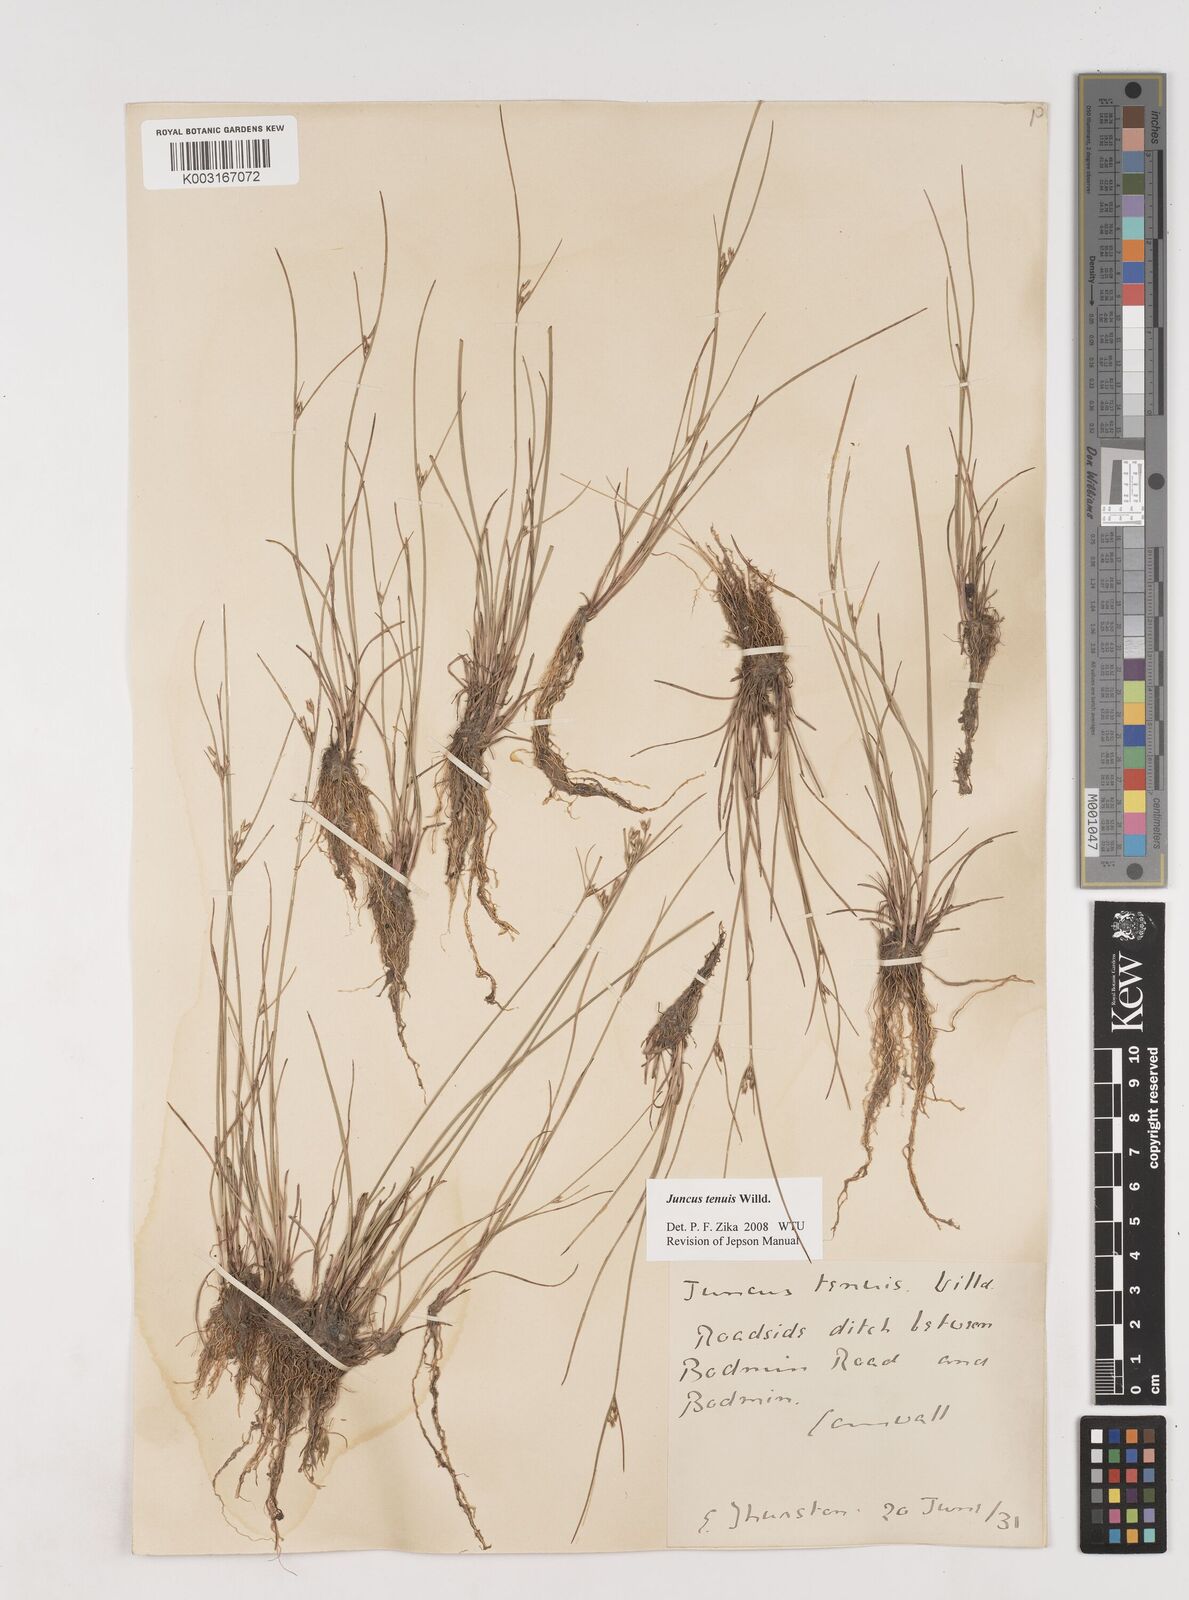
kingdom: Plantae
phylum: Tracheophyta
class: Liliopsida
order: Poales
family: Juncaceae
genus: Juncus
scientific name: Juncus tenuis
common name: Slender rush
